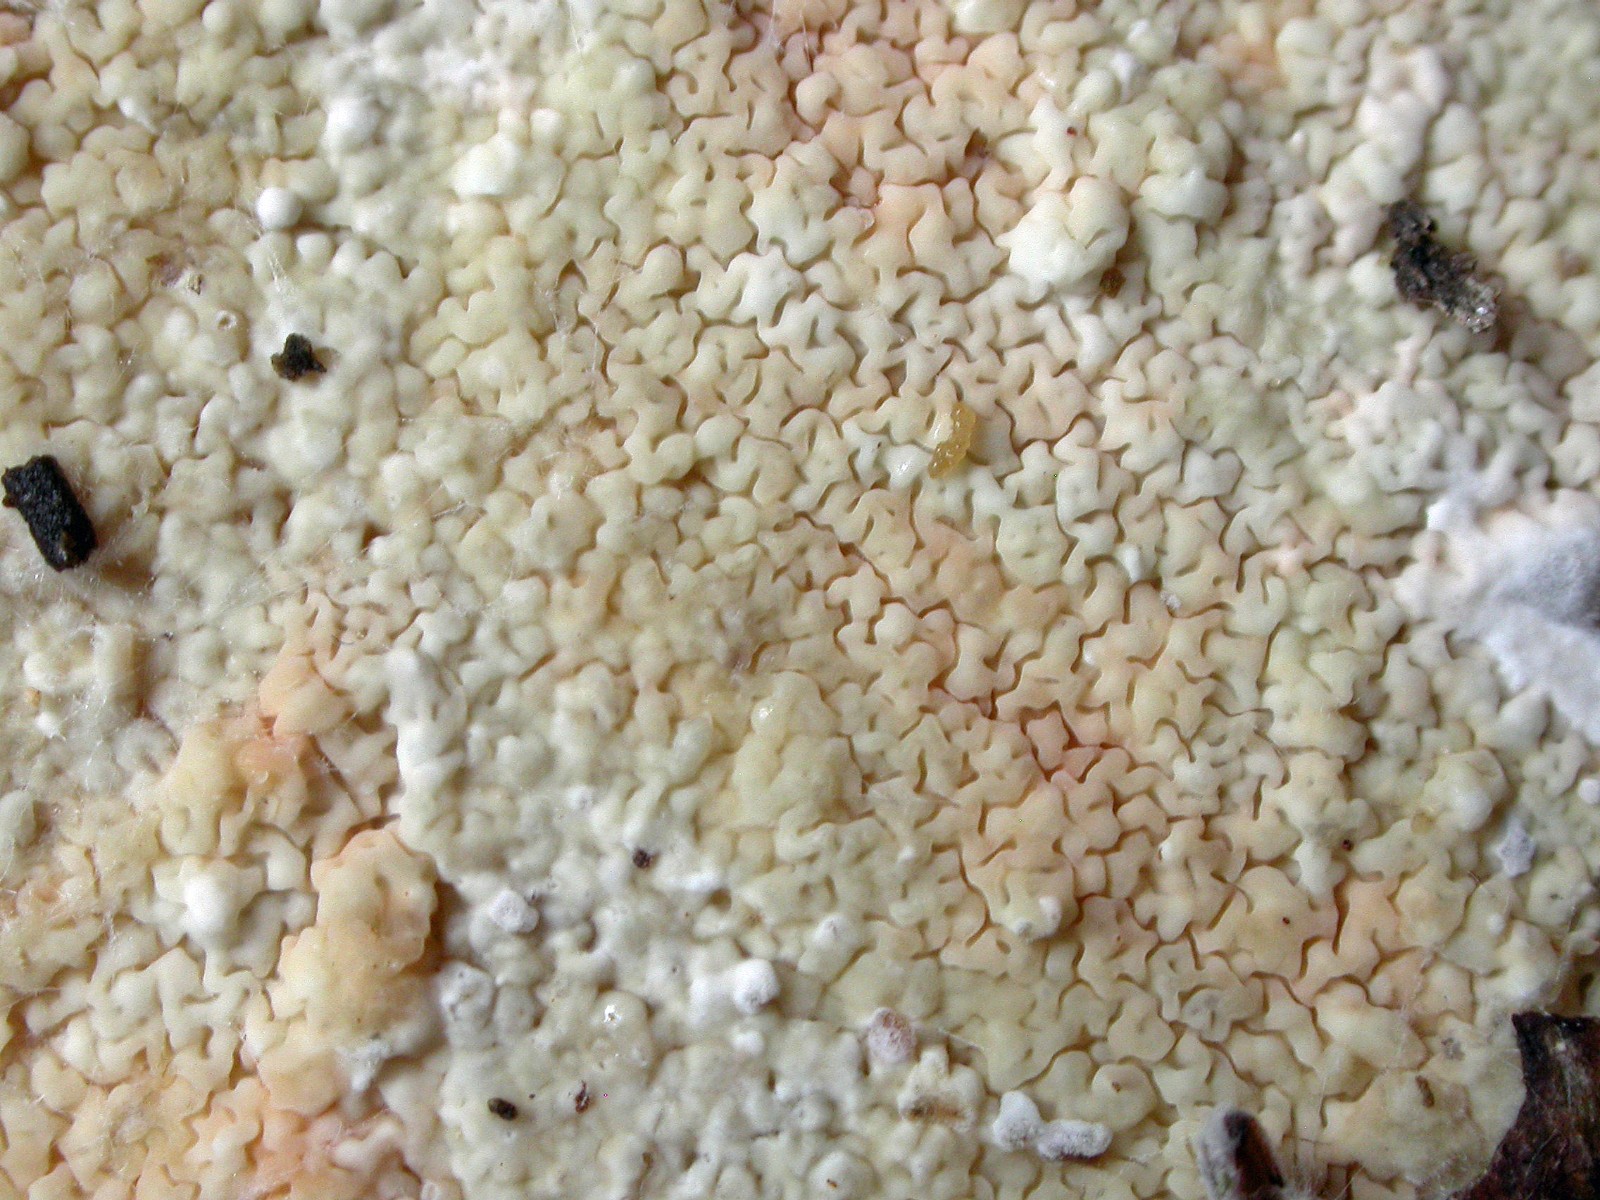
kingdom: Fungi
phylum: Basidiomycota
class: Agaricomycetes
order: Polyporales
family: Irpicaceae
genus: Crystallicutis
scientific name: Crystallicutis serpens
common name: gråviolet barkhinde
